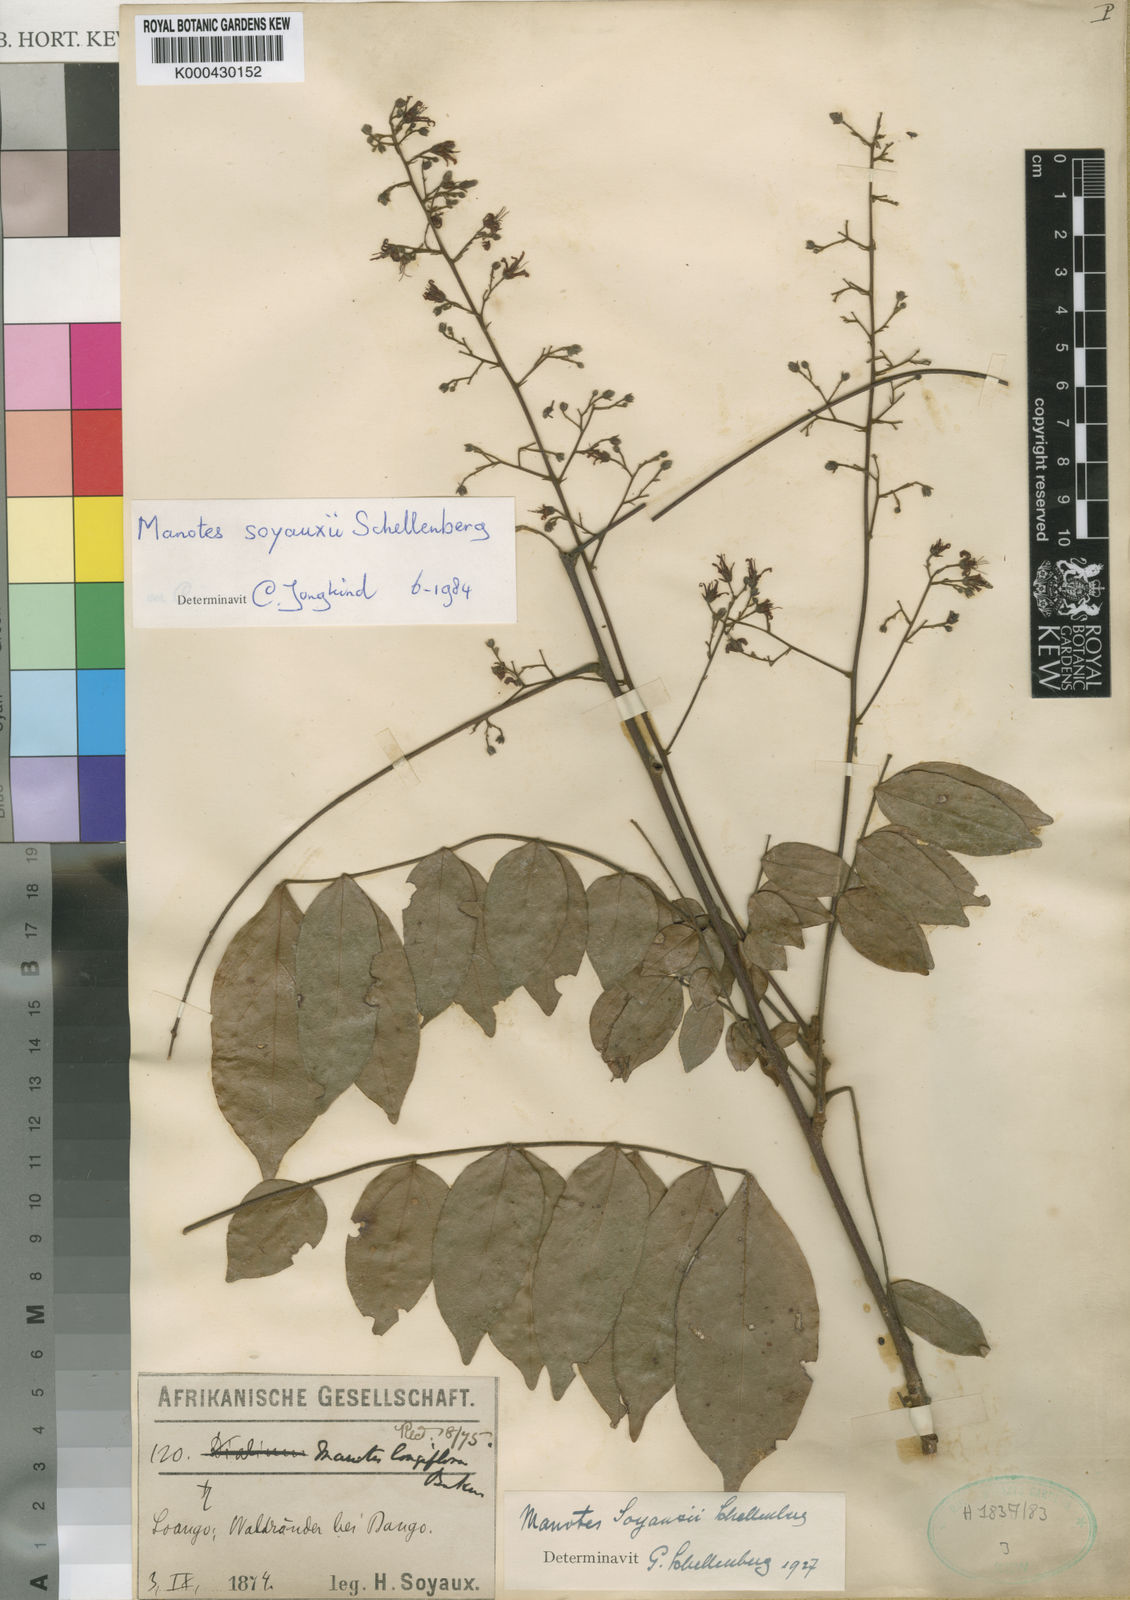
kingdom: Plantae
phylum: Tracheophyta
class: Magnoliopsida
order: Oxalidales
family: Connaraceae
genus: Manotes
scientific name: Manotes expansa
